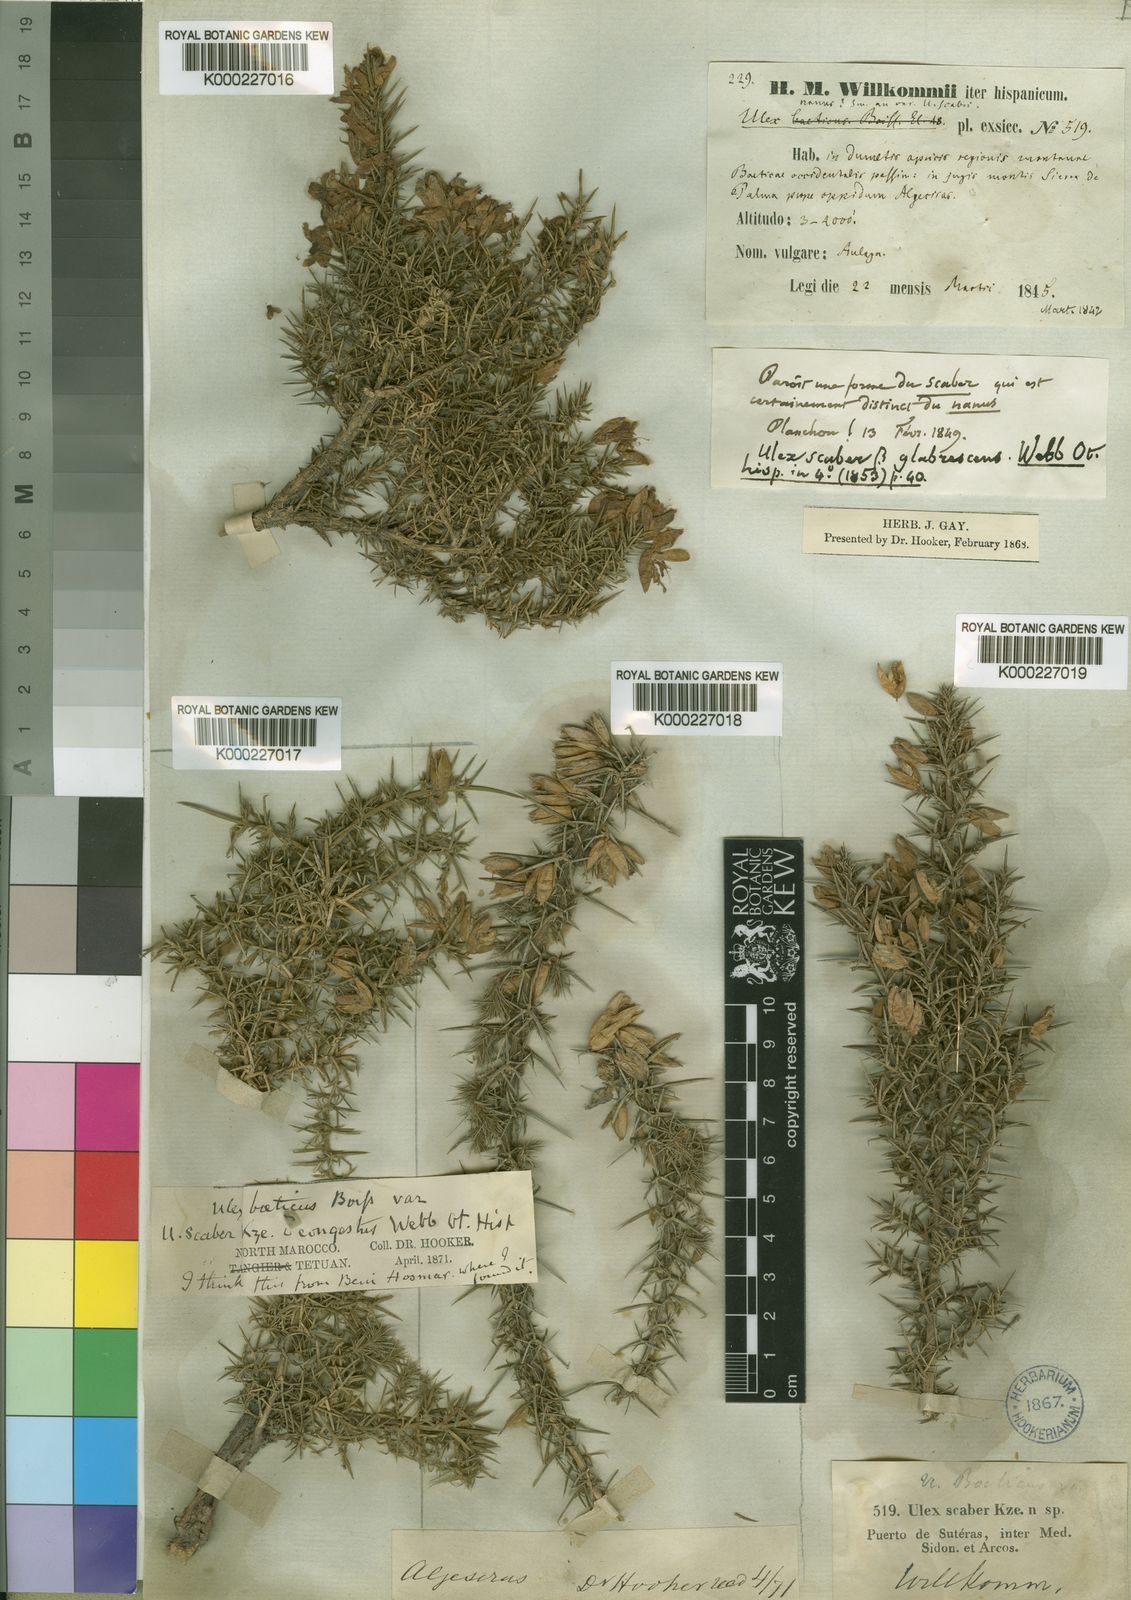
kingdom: Plantae
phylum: Tracheophyta
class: Magnoliopsida
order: Fabales
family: Fabaceae
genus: Ulex
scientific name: Ulex
